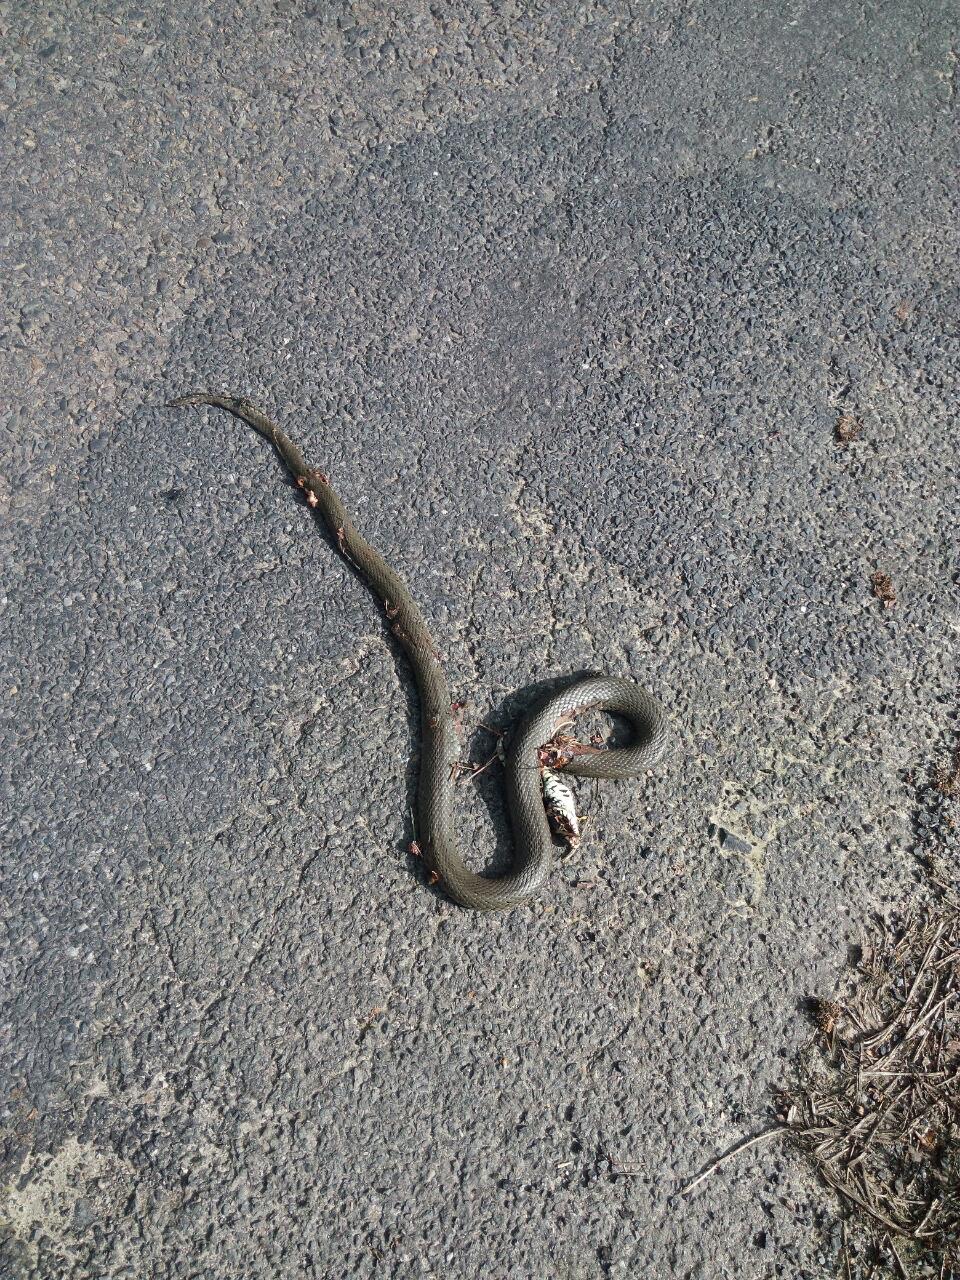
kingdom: Animalia
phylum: Chordata
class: Squamata
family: Colubridae
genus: Natrix
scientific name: Natrix natrix
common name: Grass snake
